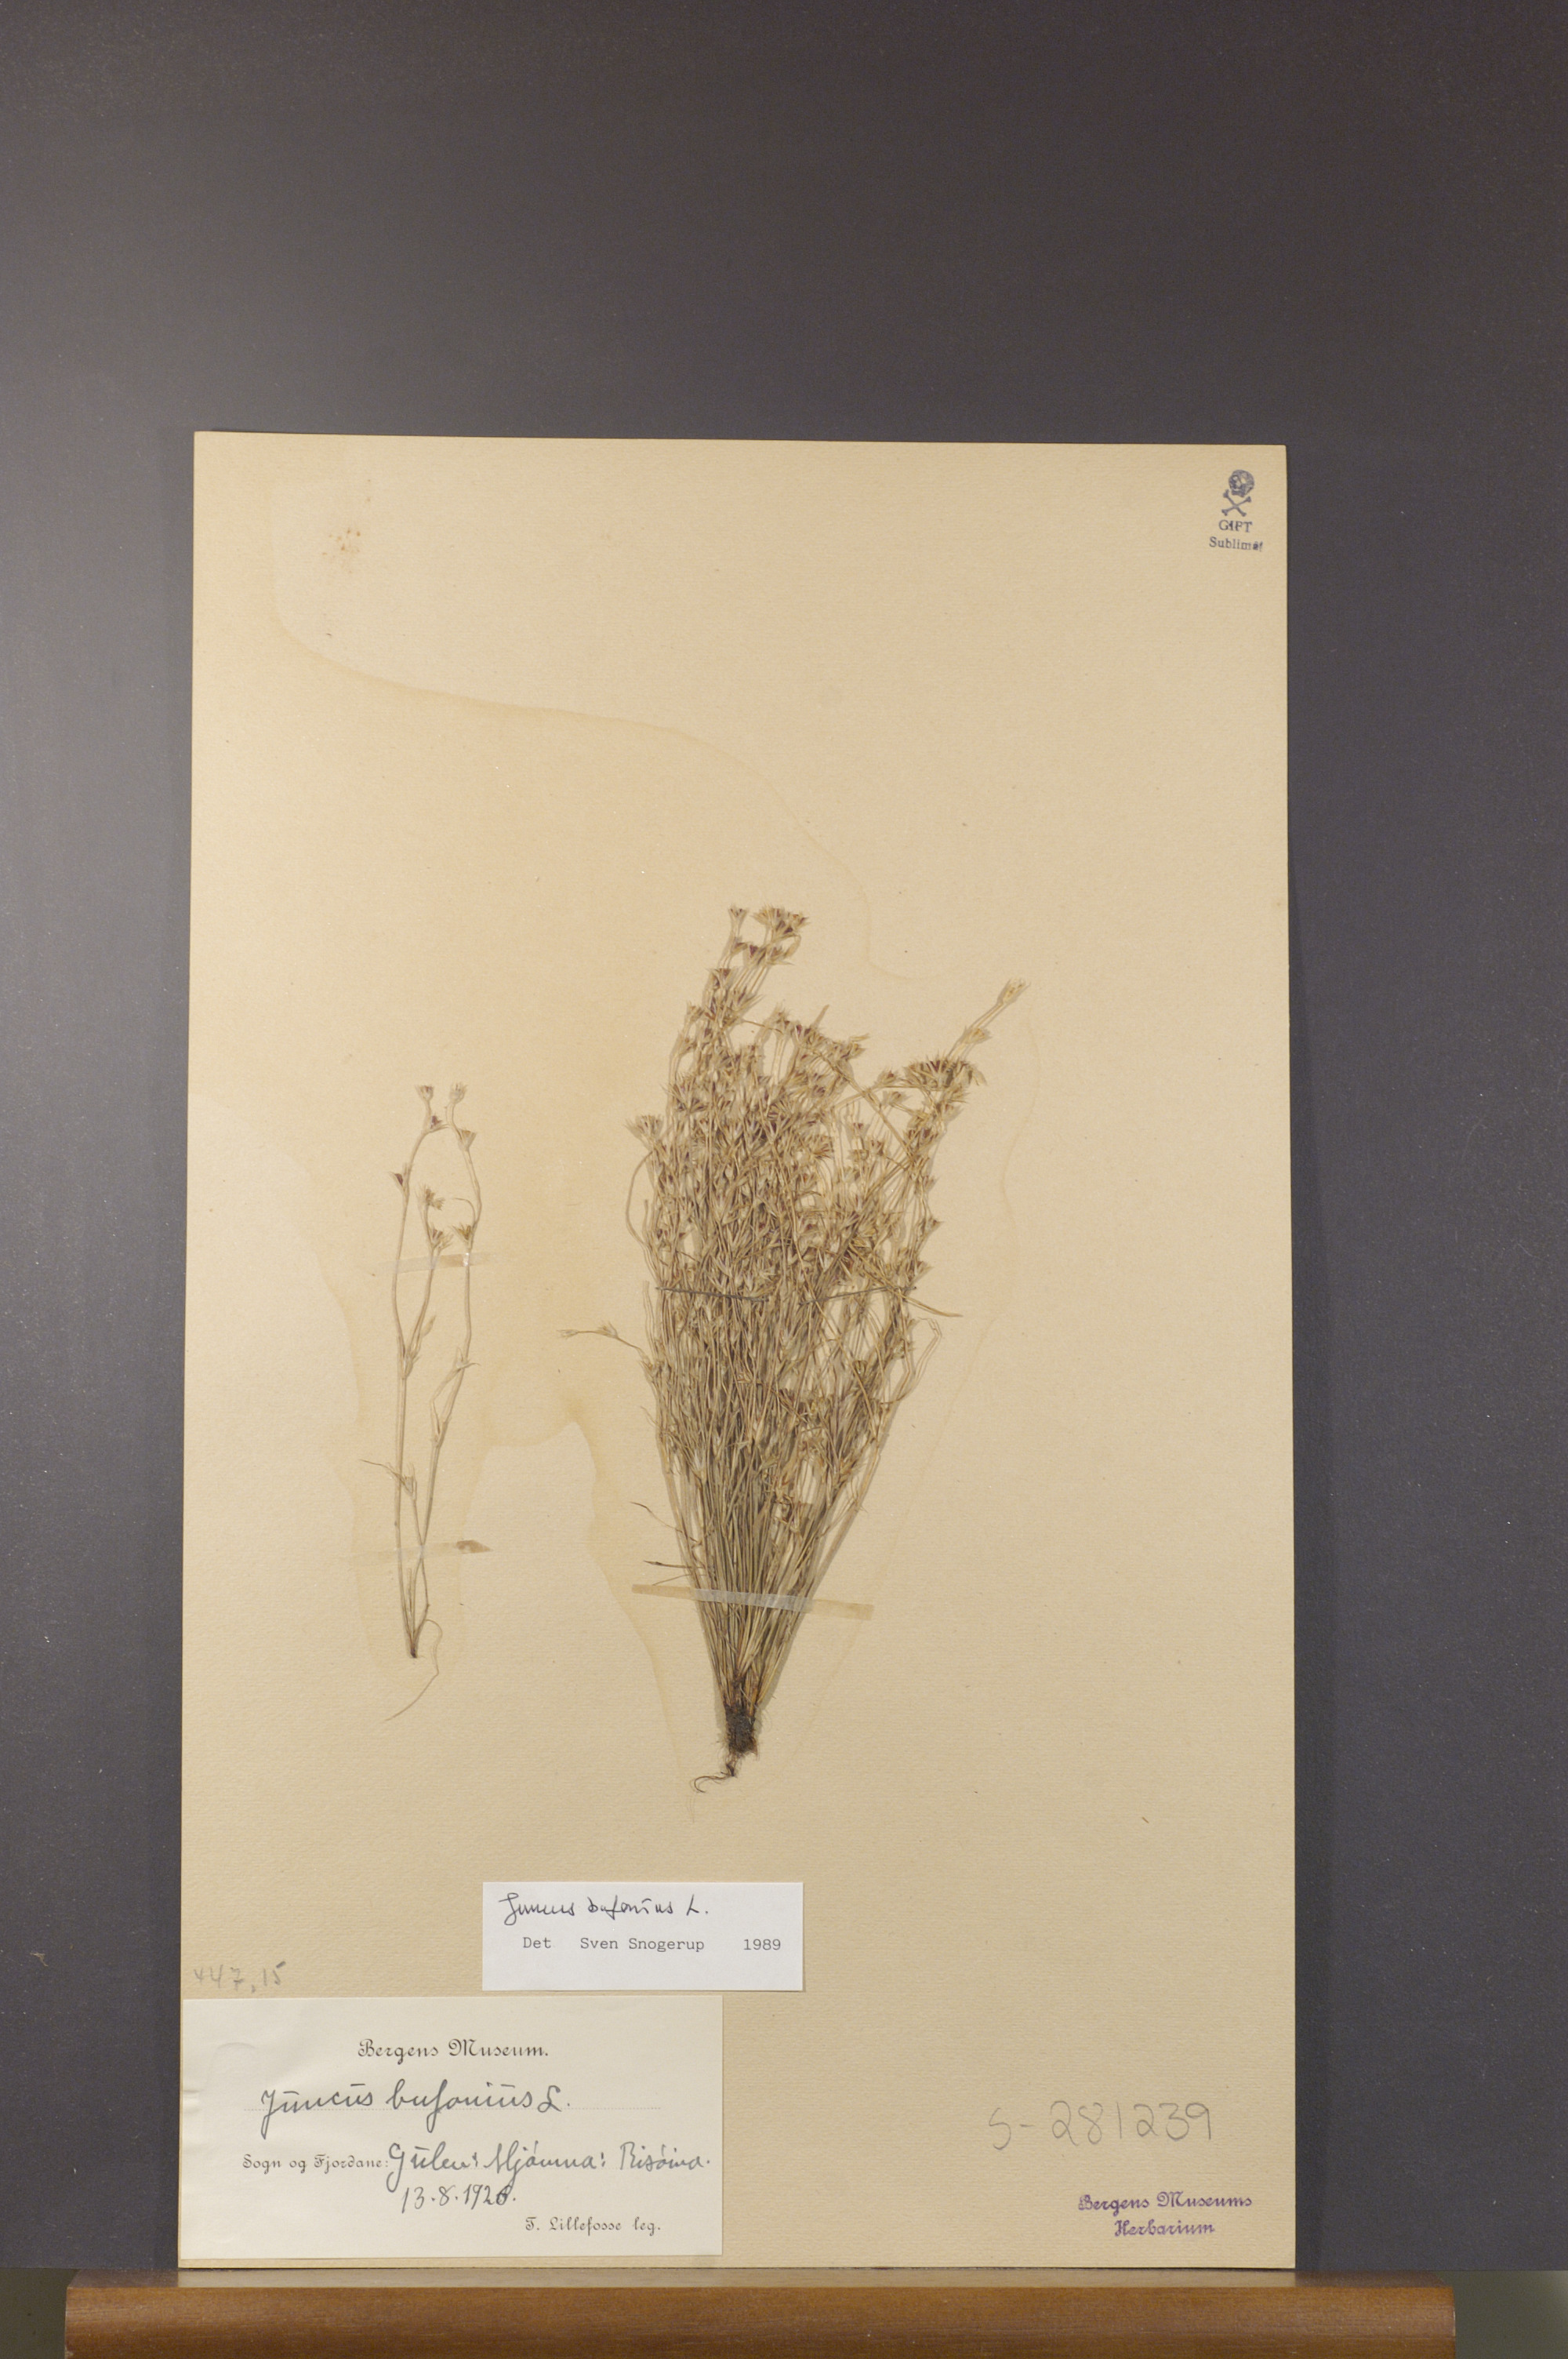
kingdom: Plantae
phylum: Tracheophyta
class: Liliopsida
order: Poales
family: Juncaceae
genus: Juncus
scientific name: Juncus bufonius
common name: Toad rush
